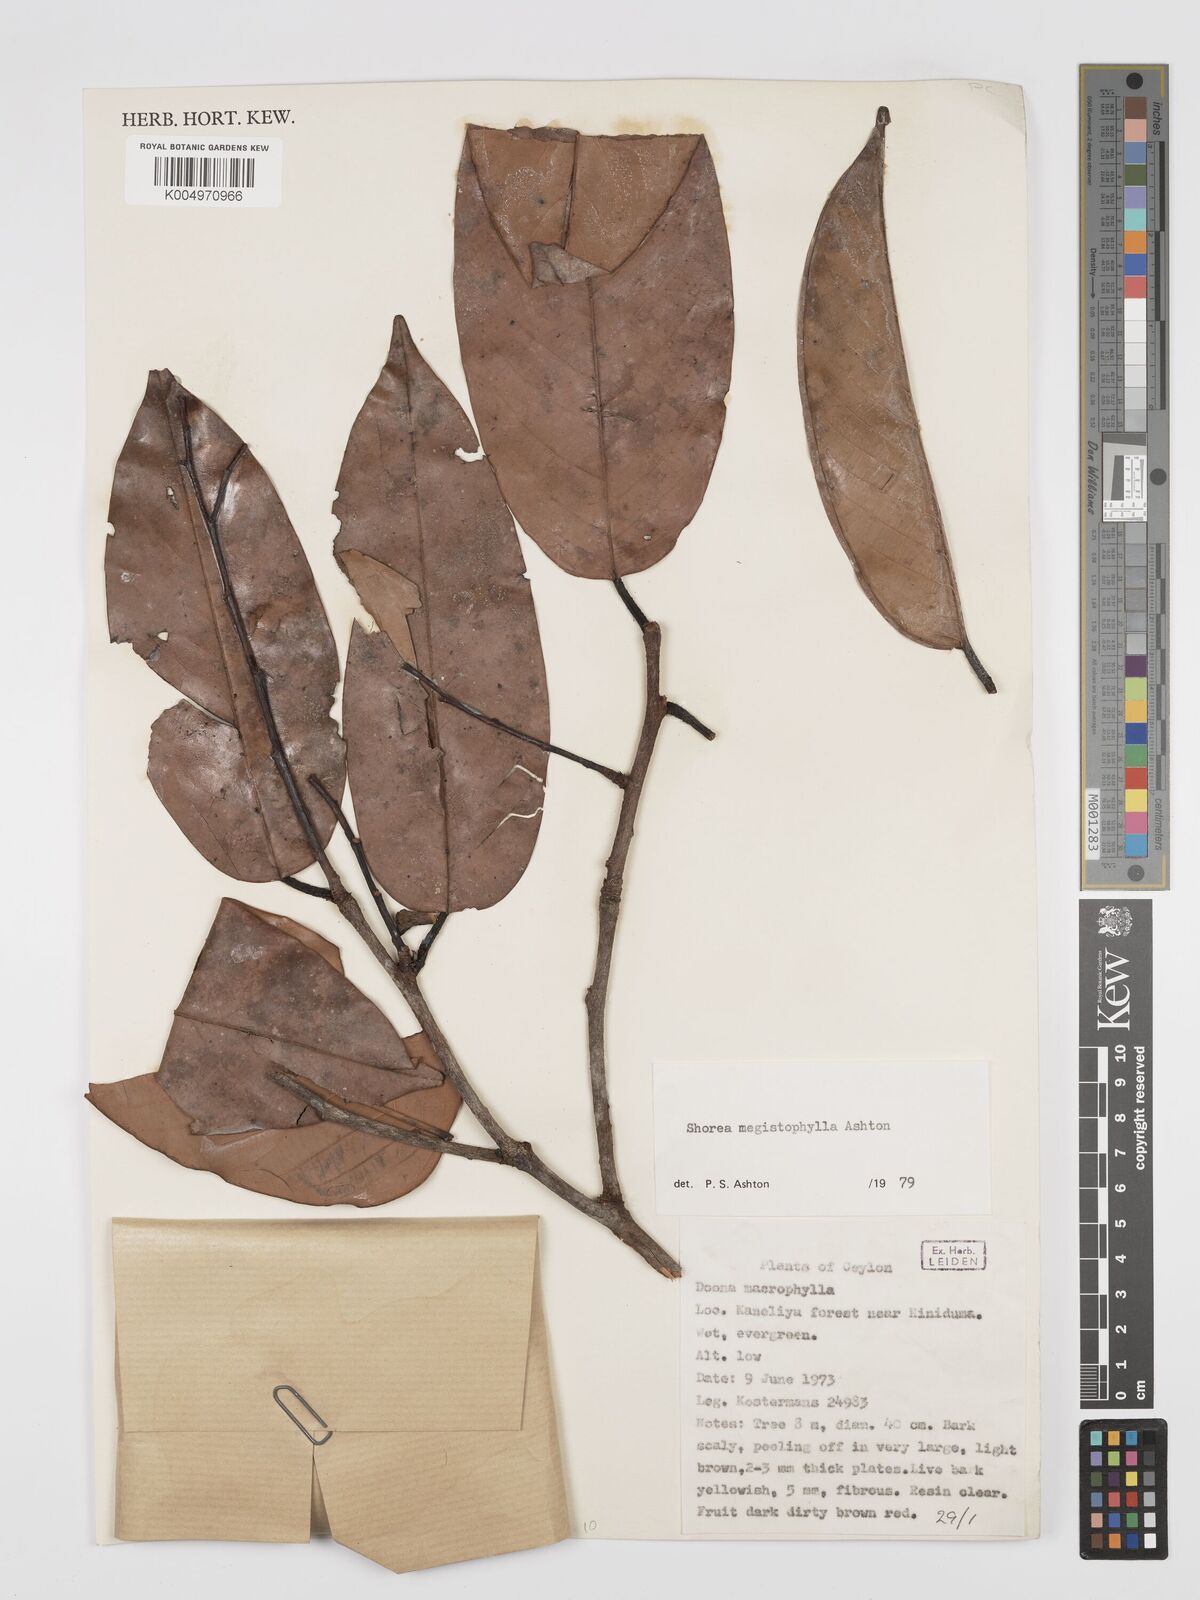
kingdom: Plantae
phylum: Tracheophyta
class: Magnoliopsida
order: Malvales
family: Dipterocarpaceae
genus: Doona
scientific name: Doona macrophylla
